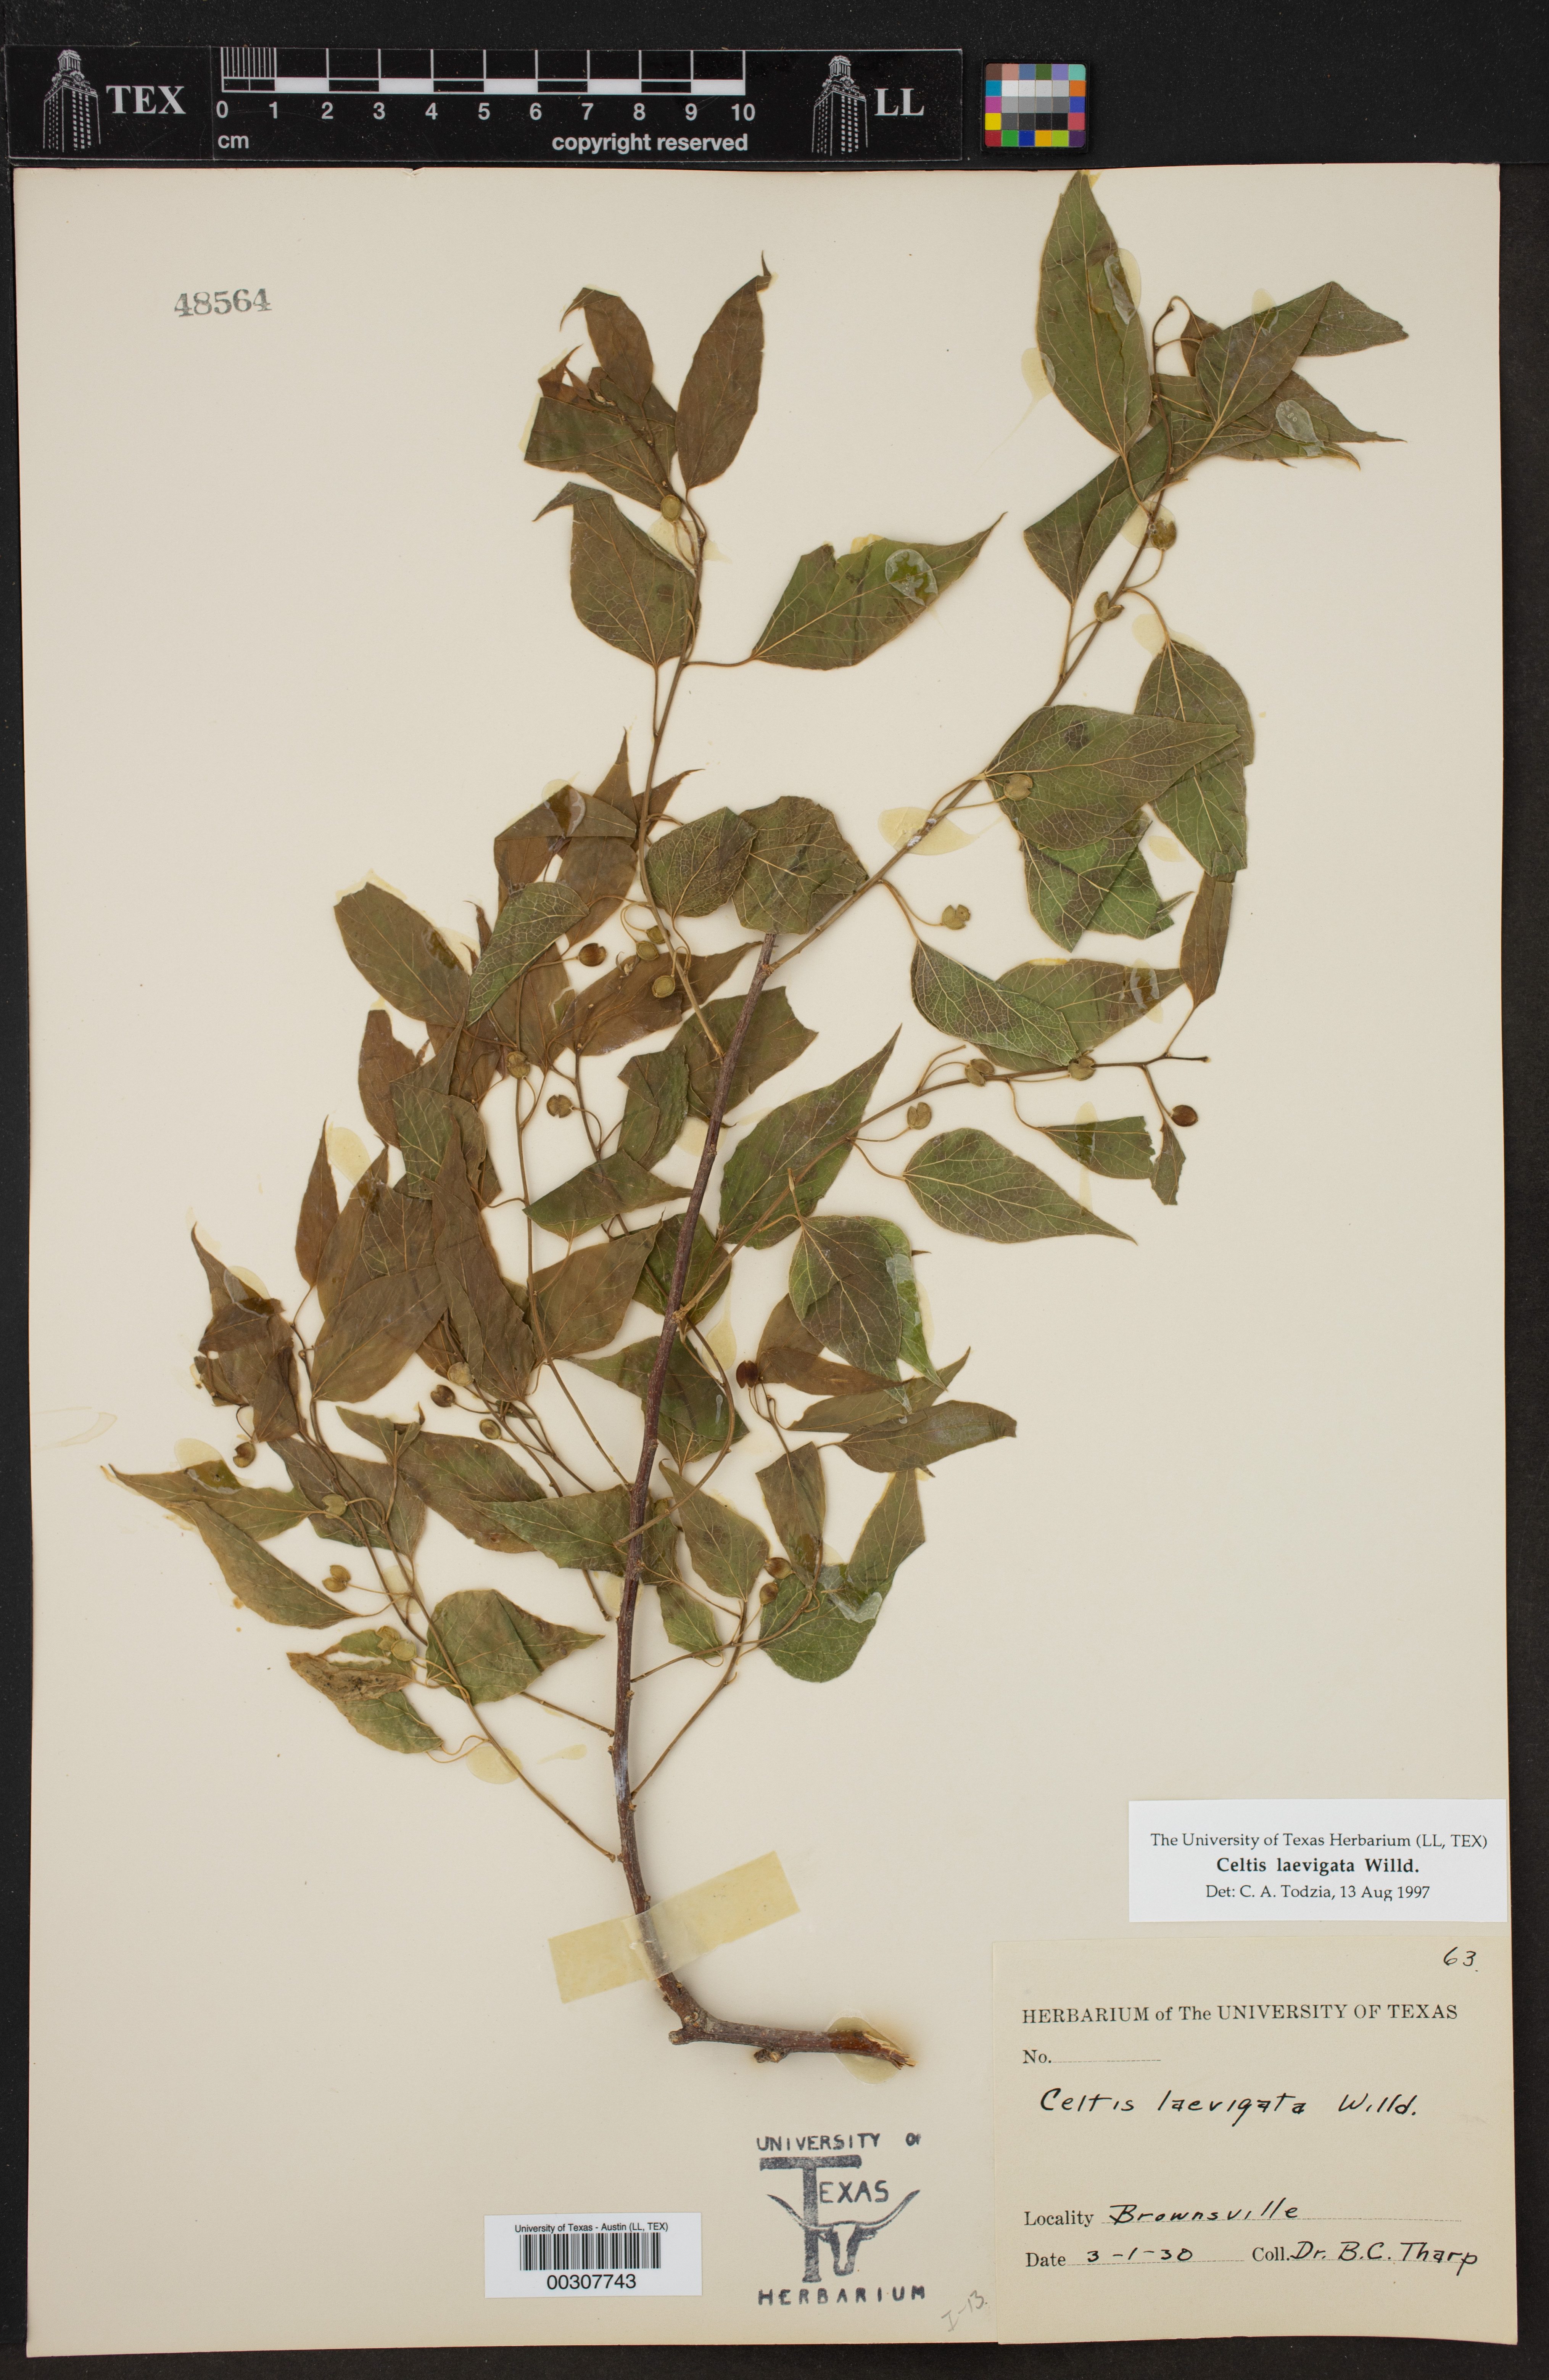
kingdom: Plantae
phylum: Tracheophyta
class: Magnoliopsida
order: Rosales
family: Cannabaceae
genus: Celtis
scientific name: Celtis laevigata
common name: Sugarberry
